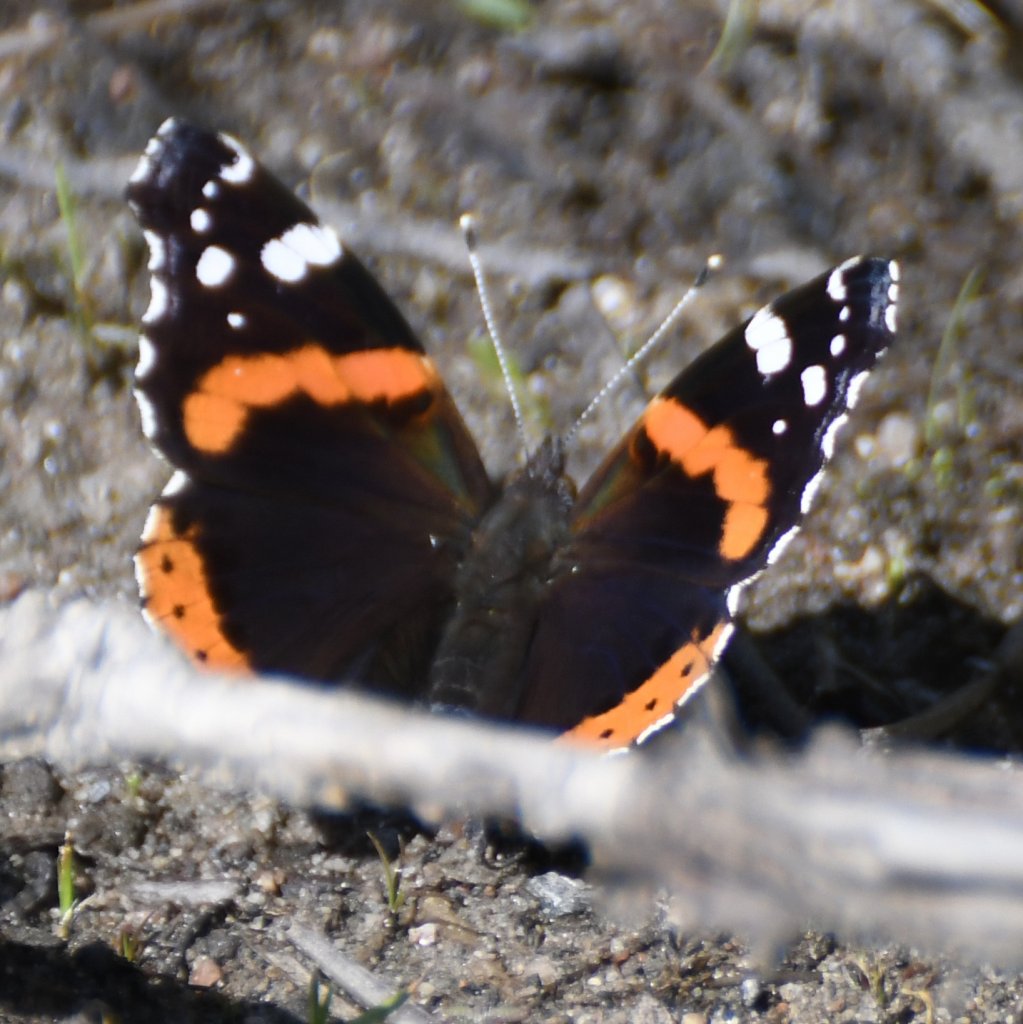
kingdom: Animalia
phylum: Arthropoda
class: Insecta
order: Lepidoptera
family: Nymphalidae
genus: Vanessa
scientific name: Vanessa atalanta
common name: Red Admiral
